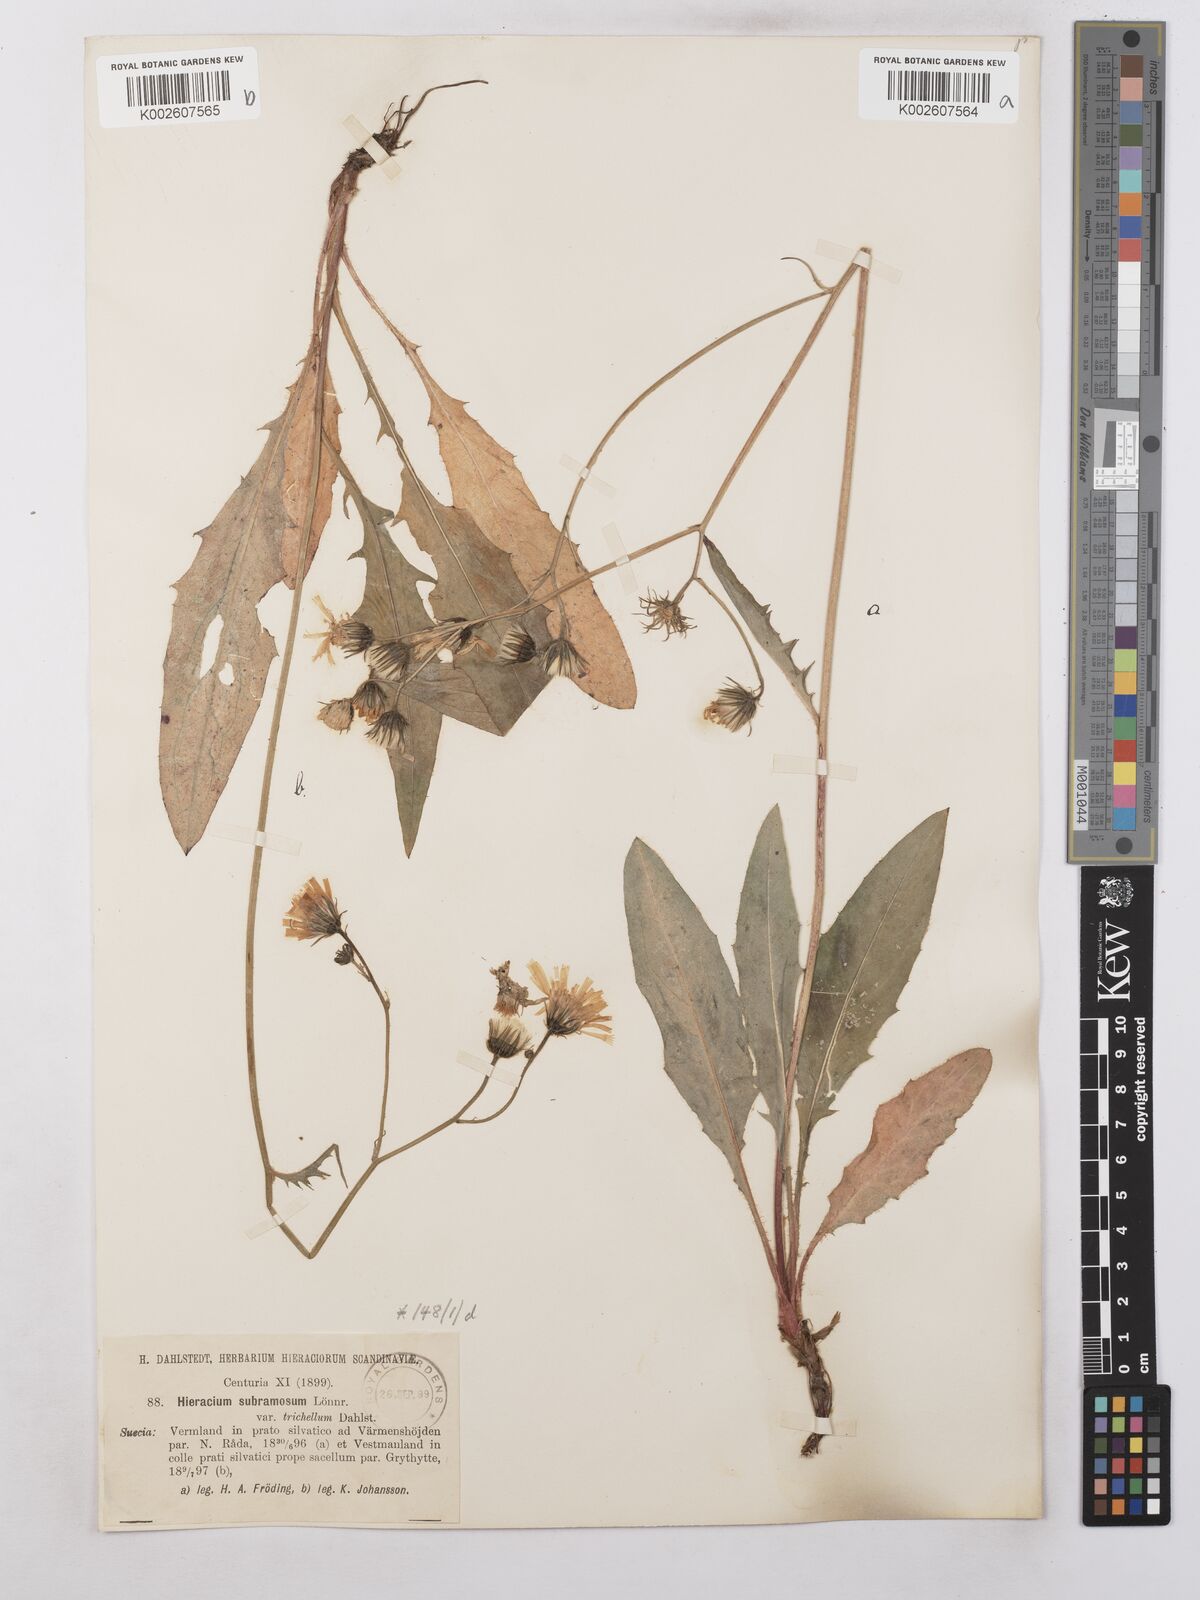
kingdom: Plantae
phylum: Tracheophyta
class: Magnoliopsida
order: Asterales
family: Asteraceae
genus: Hieracium
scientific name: Hieracium subramosum
